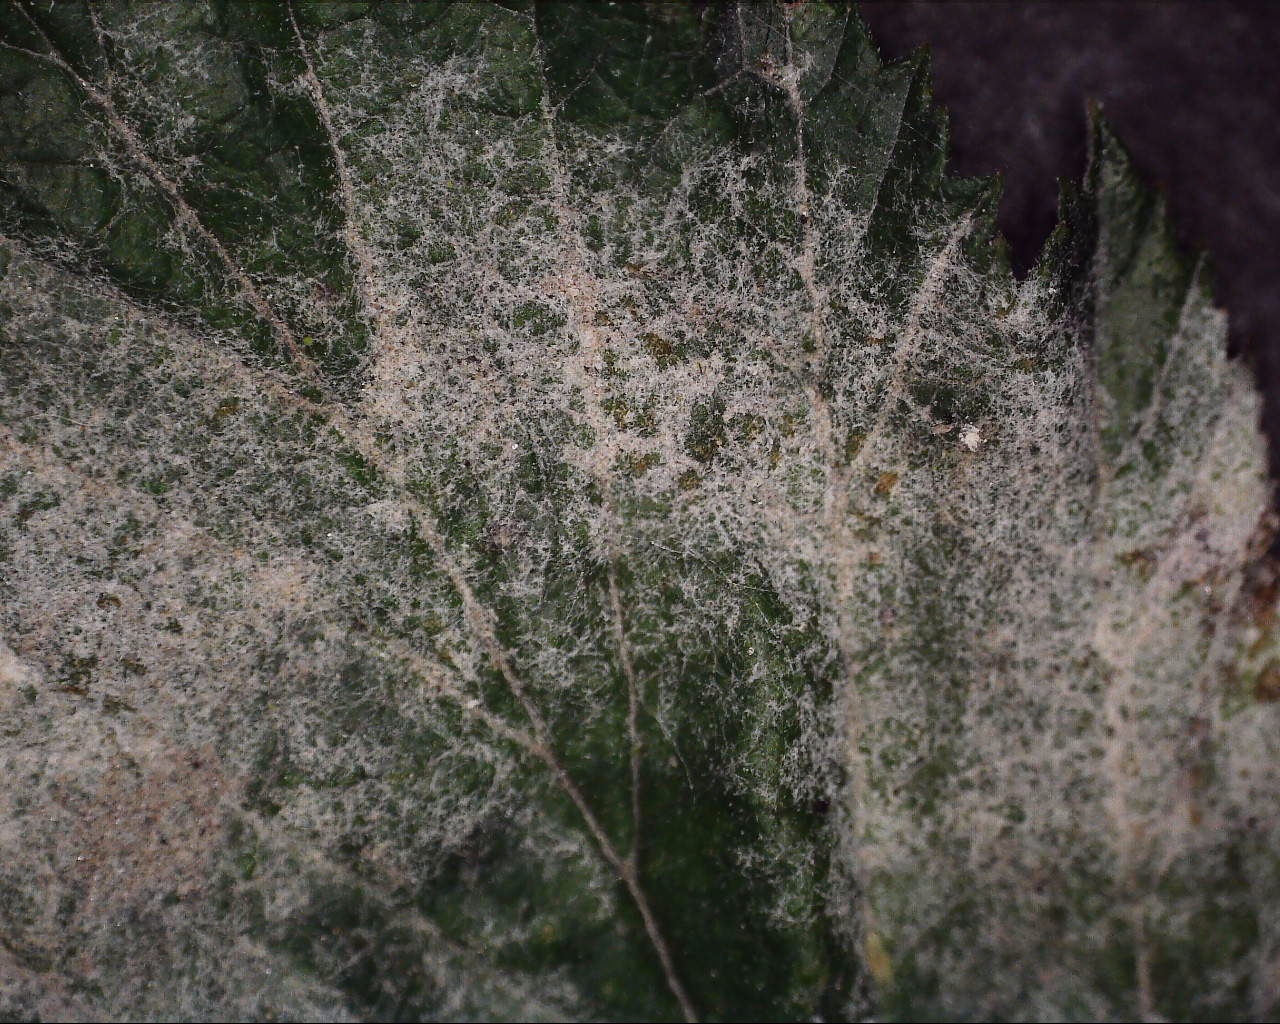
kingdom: Fungi
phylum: Ascomycota
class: Leotiomycetes
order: Helotiales
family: Erysiphaceae
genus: Podosphaera
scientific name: Podosphaera filipendulae
